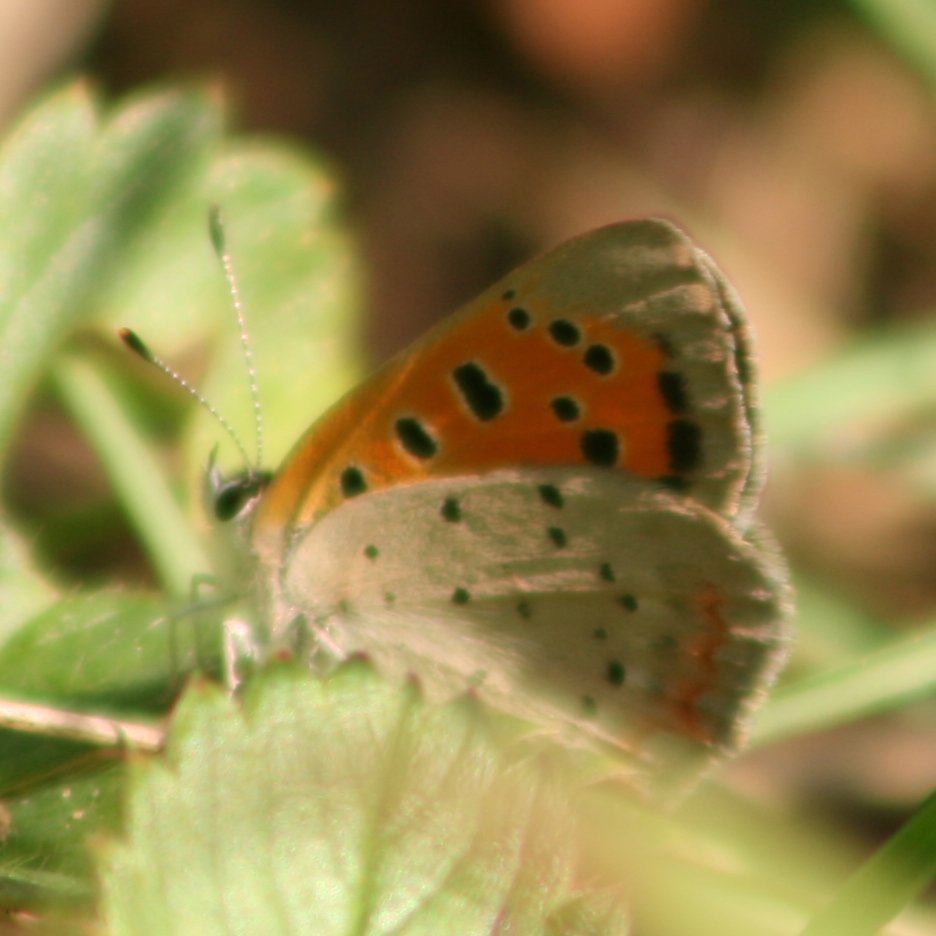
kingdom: Animalia
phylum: Arthropoda
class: Insecta
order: Lepidoptera
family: Lycaenidae
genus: Lycaena
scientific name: Lycaena phlaeas
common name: American Copper
